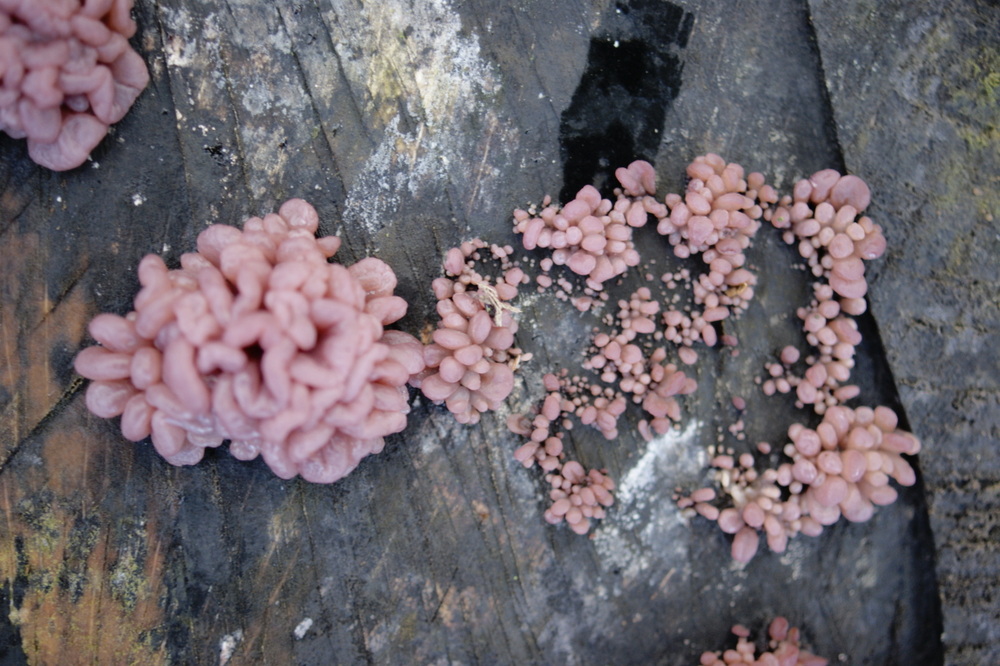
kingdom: Fungi
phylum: Ascomycota
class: Leotiomycetes
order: Helotiales
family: Gelatinodiscaceae
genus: Ascocoryne
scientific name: Ascocoryne sarcoides
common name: rødlilla sejskive
